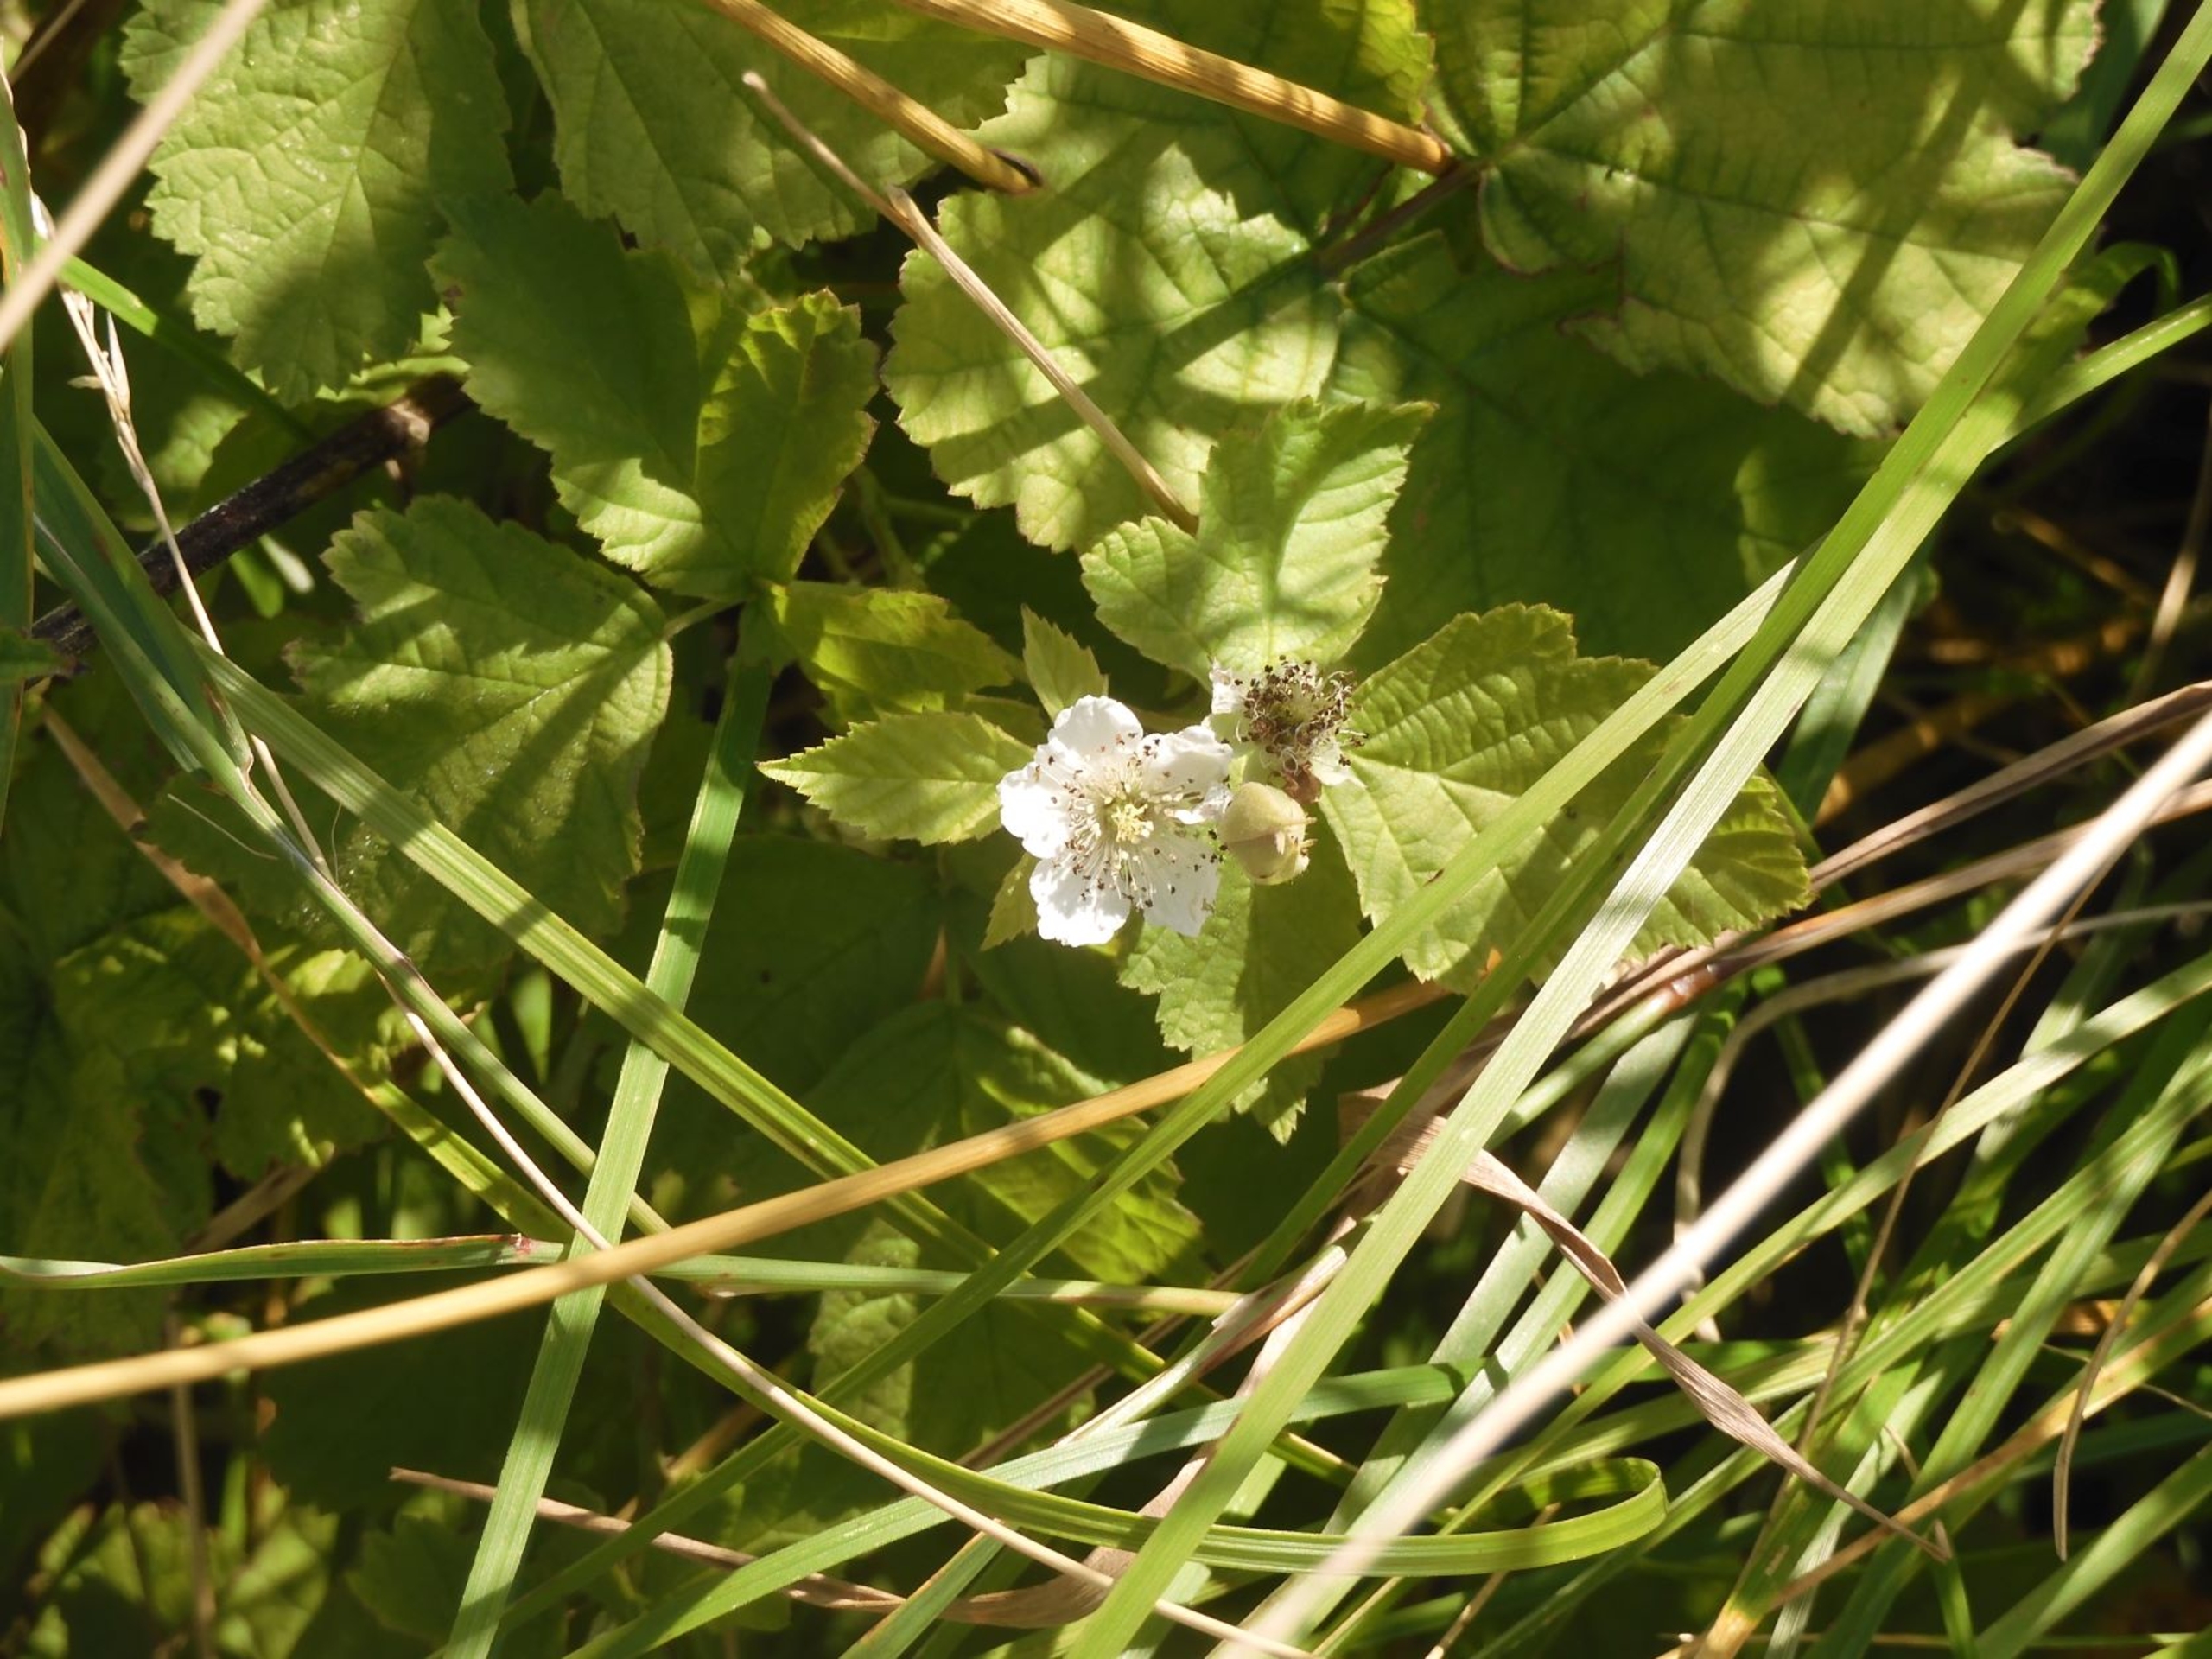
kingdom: Plantae
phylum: Tracheophyta
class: Magnoliopsida
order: Rosales
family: Rosaceae
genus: Rubus
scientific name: Rubus caesius
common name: Korbær
